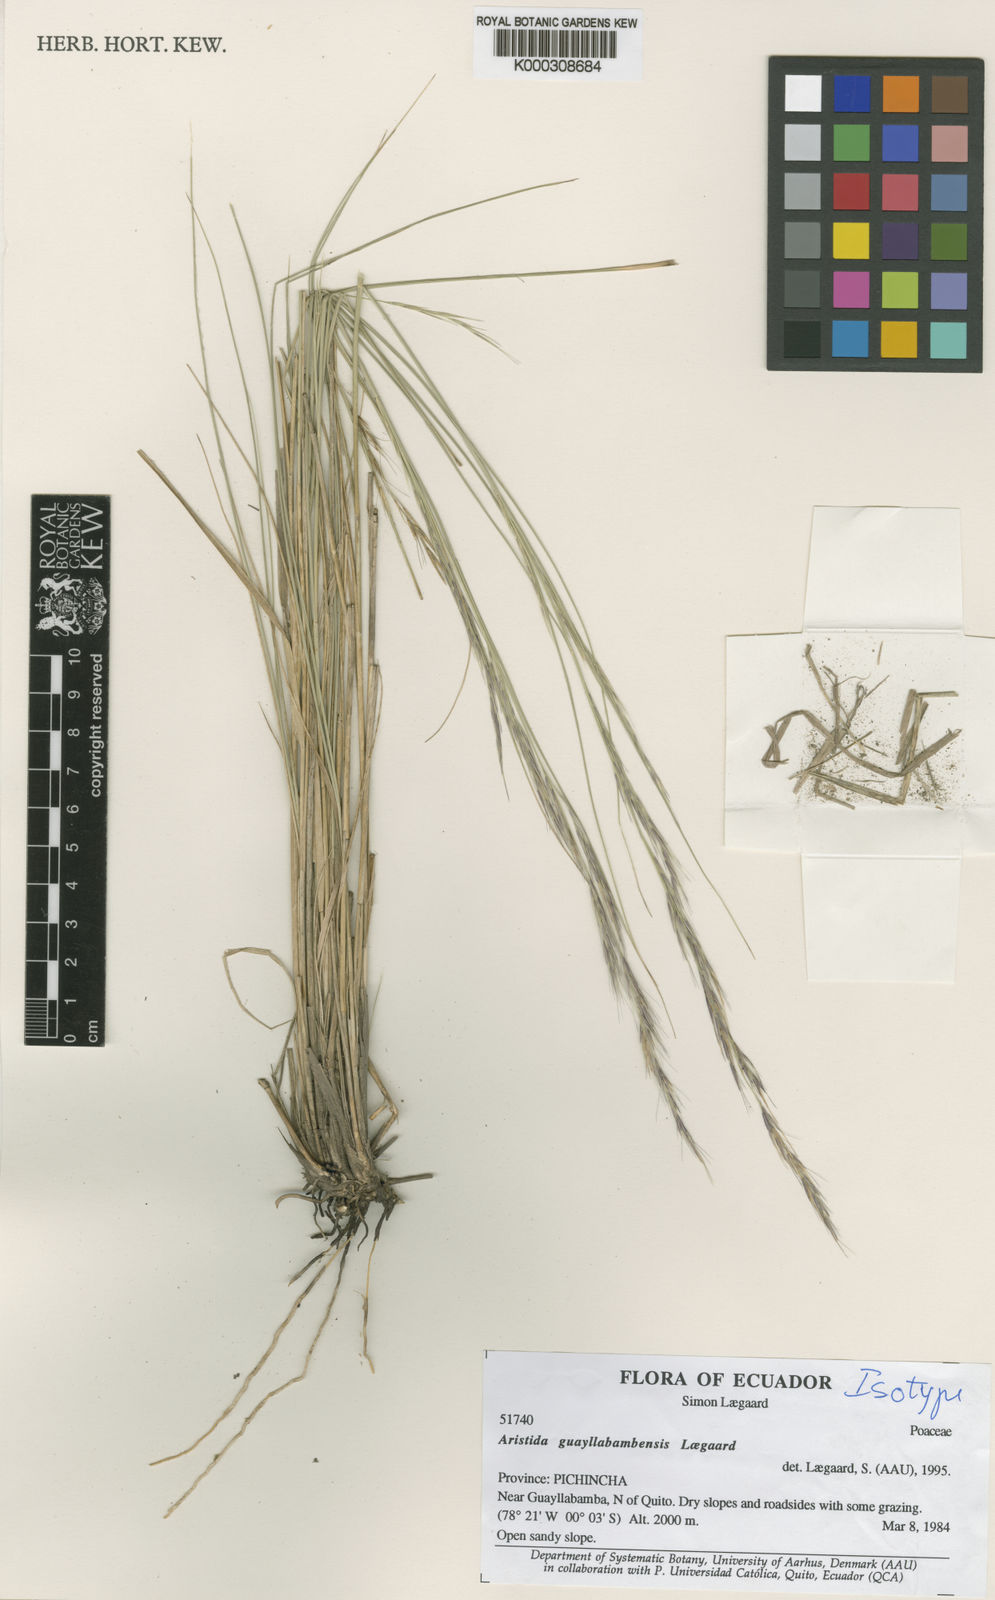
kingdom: Plantae
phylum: Tracheophyta
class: Liliopsida
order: Poales
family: Poaceae
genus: Aristida
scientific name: Aristida guayllabambensis
